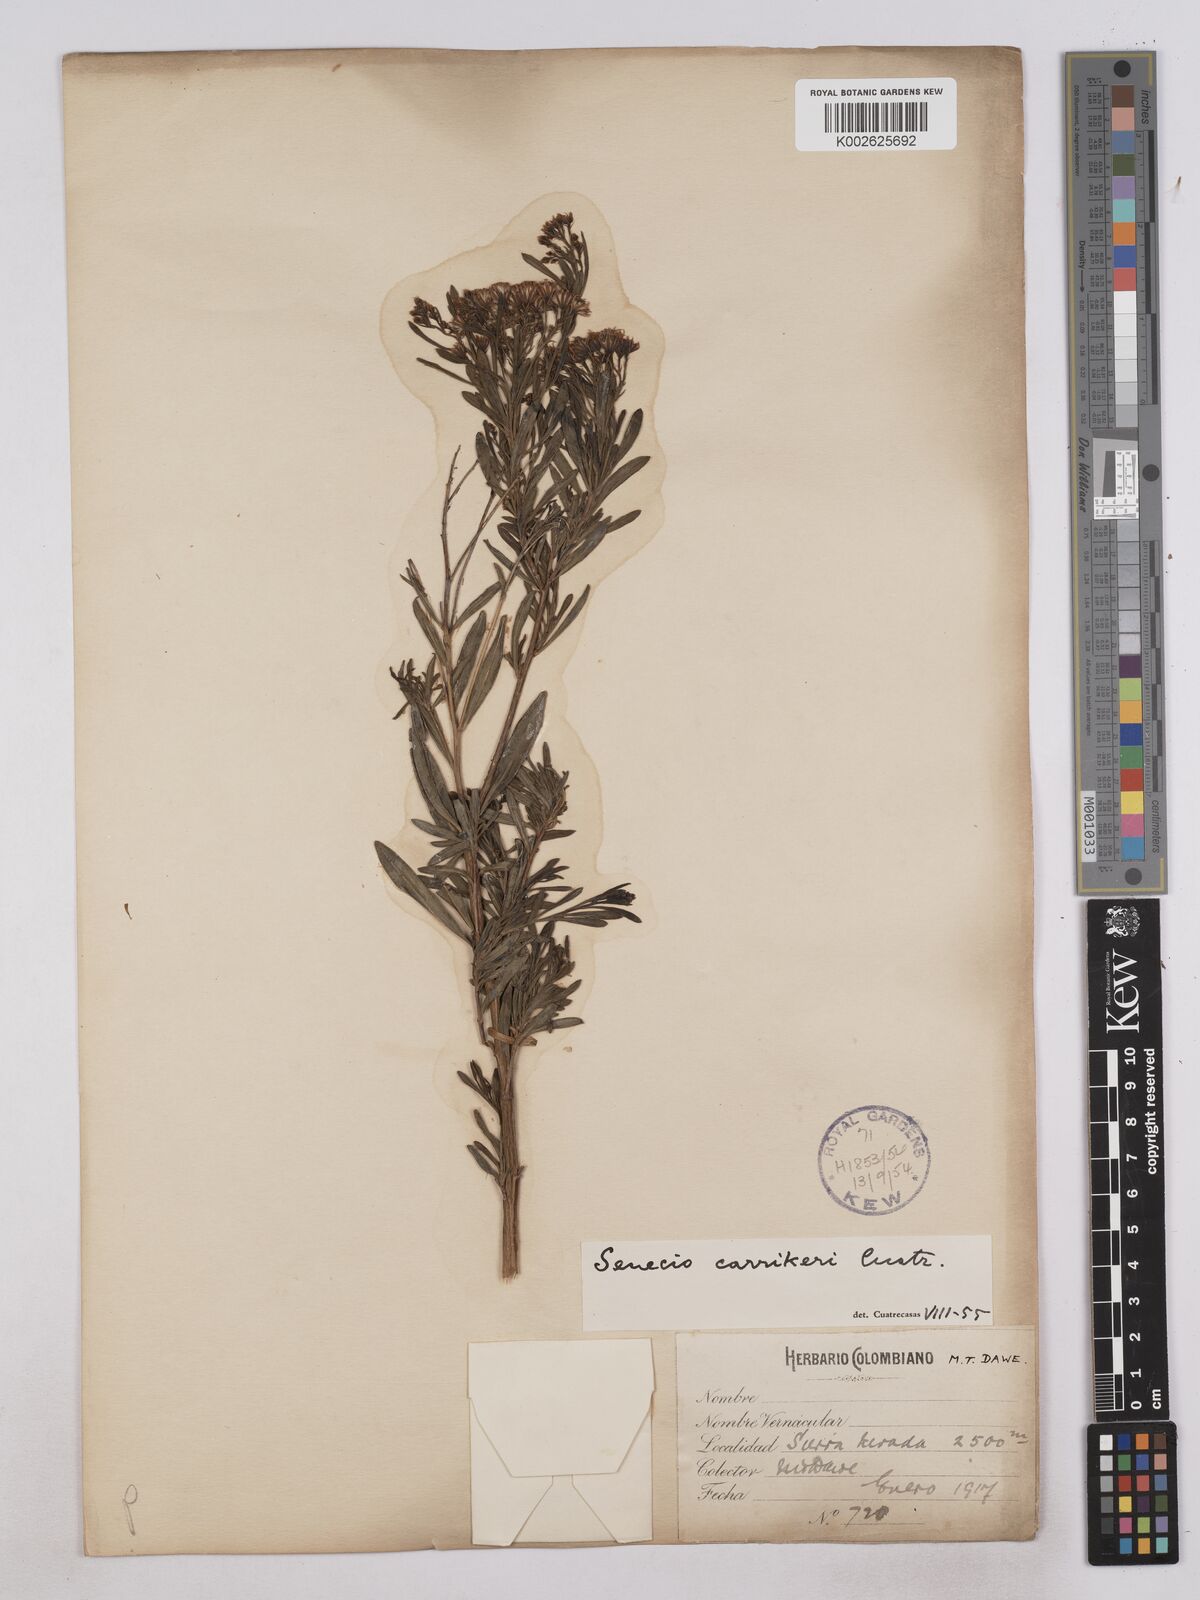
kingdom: Plantae
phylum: Tracheophyta
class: Magnoliopsida
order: Asterales
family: Asteraceae
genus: Monticalia
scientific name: Monticalia carrikeri
